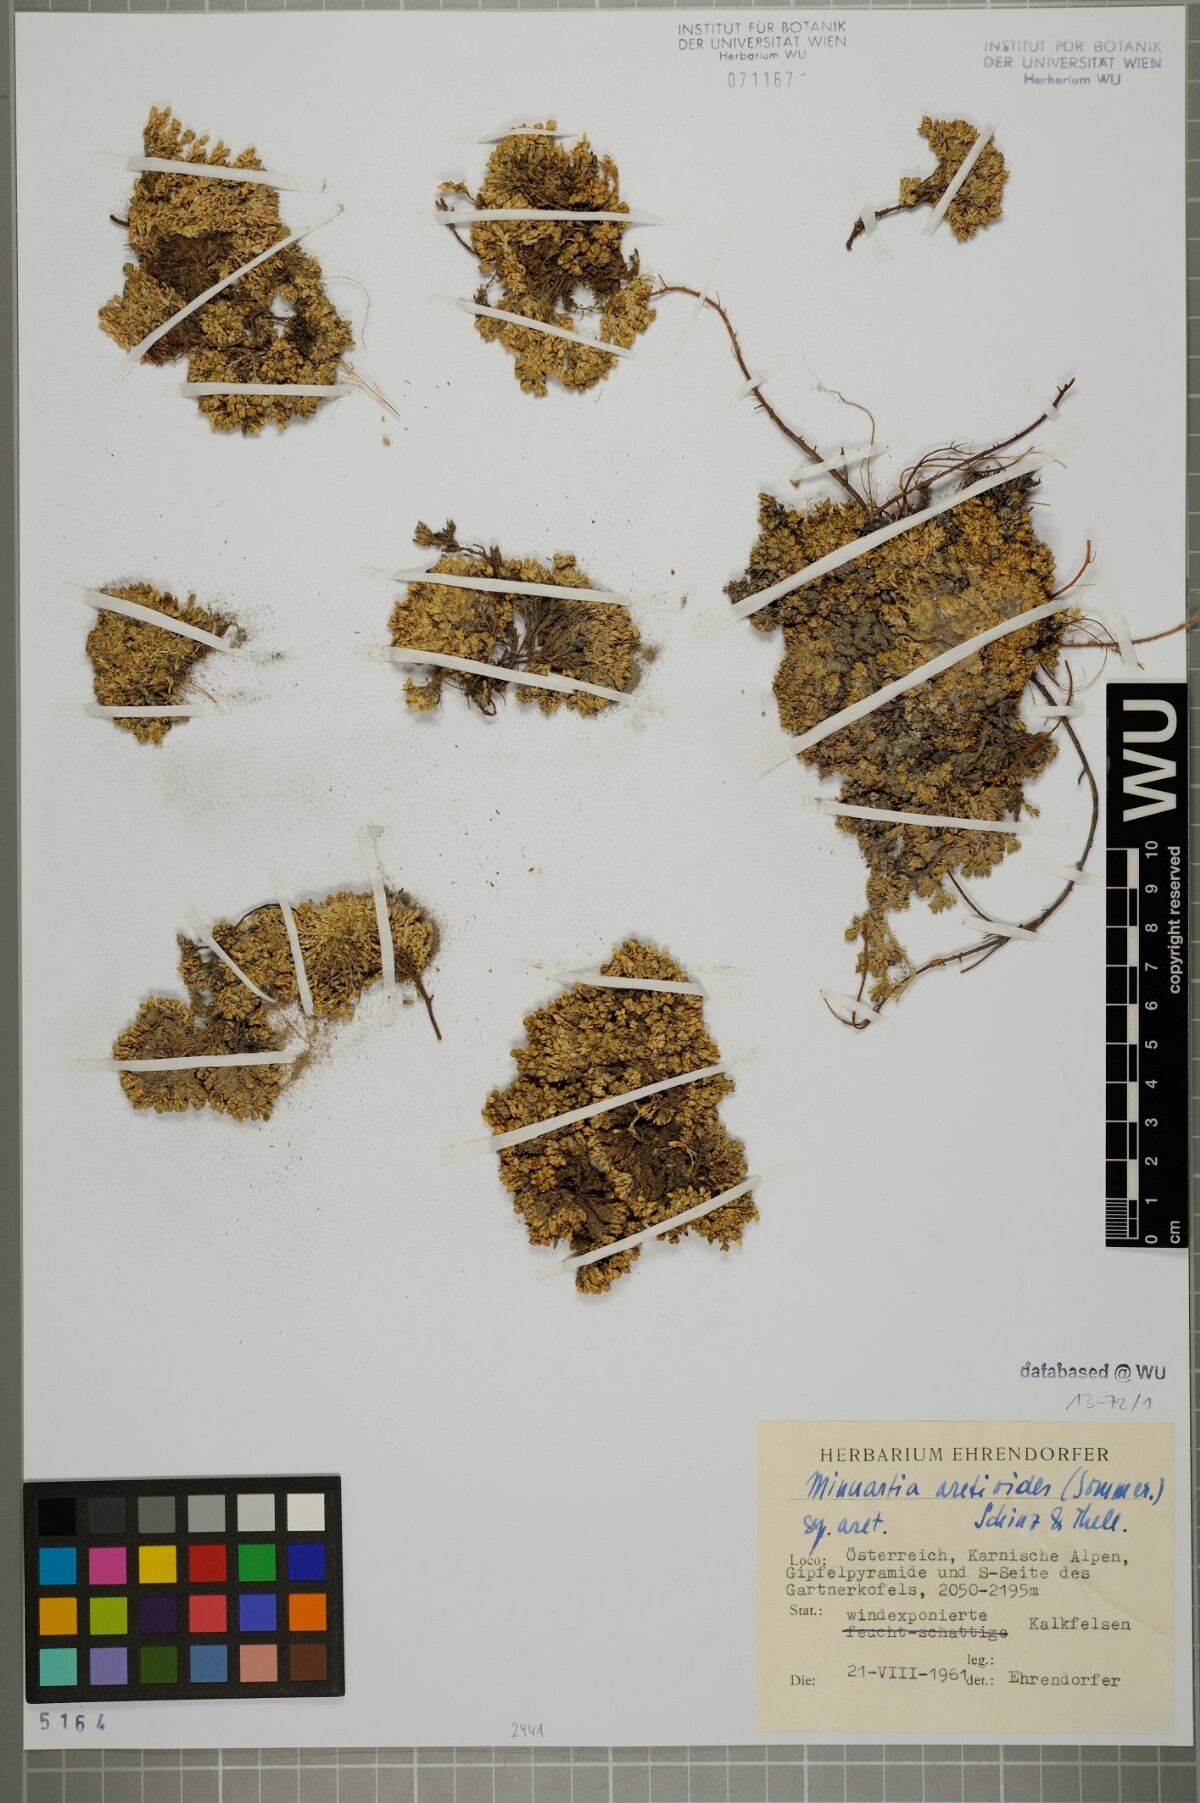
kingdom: Plantae
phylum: Tracheophyta
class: Magnoliopsida
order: Caryophyllales
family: Caryophyllaceae
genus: Facchinia
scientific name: Facchinia cherlerioides
